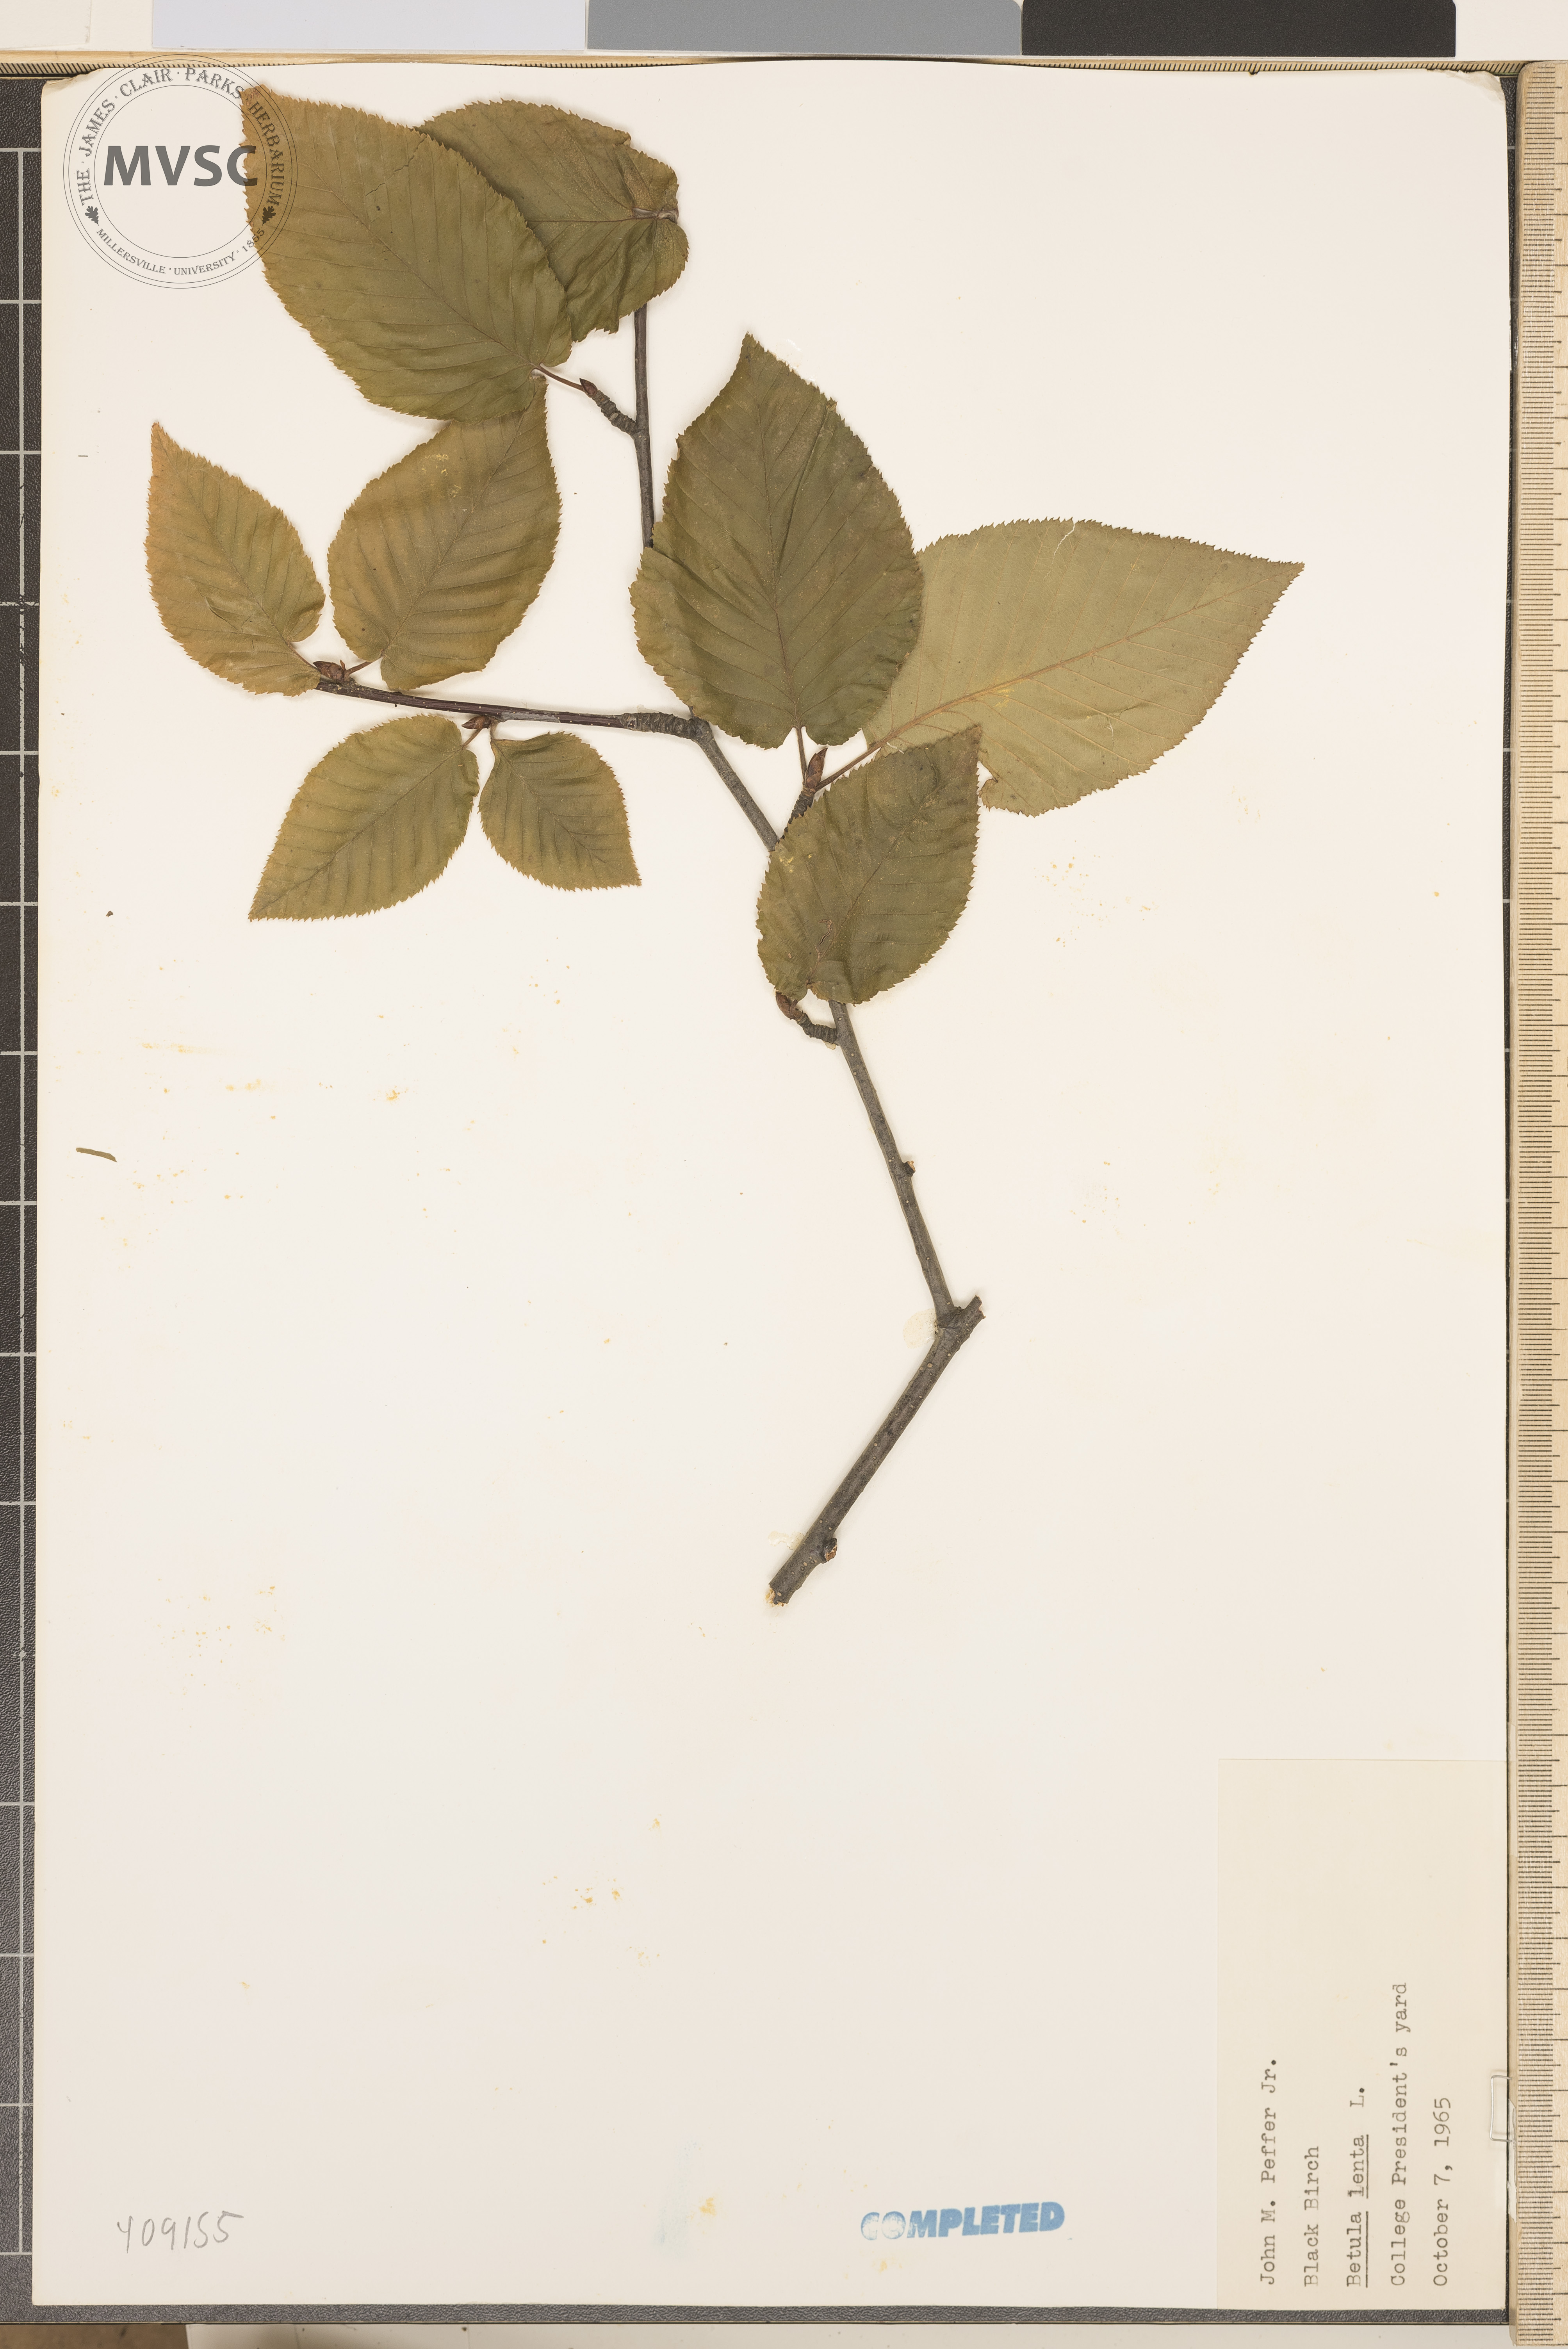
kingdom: Plantae
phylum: Tracheophyta
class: Magnoliopsida
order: Fagales
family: Betulaceae
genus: Betula
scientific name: Betula lenta
